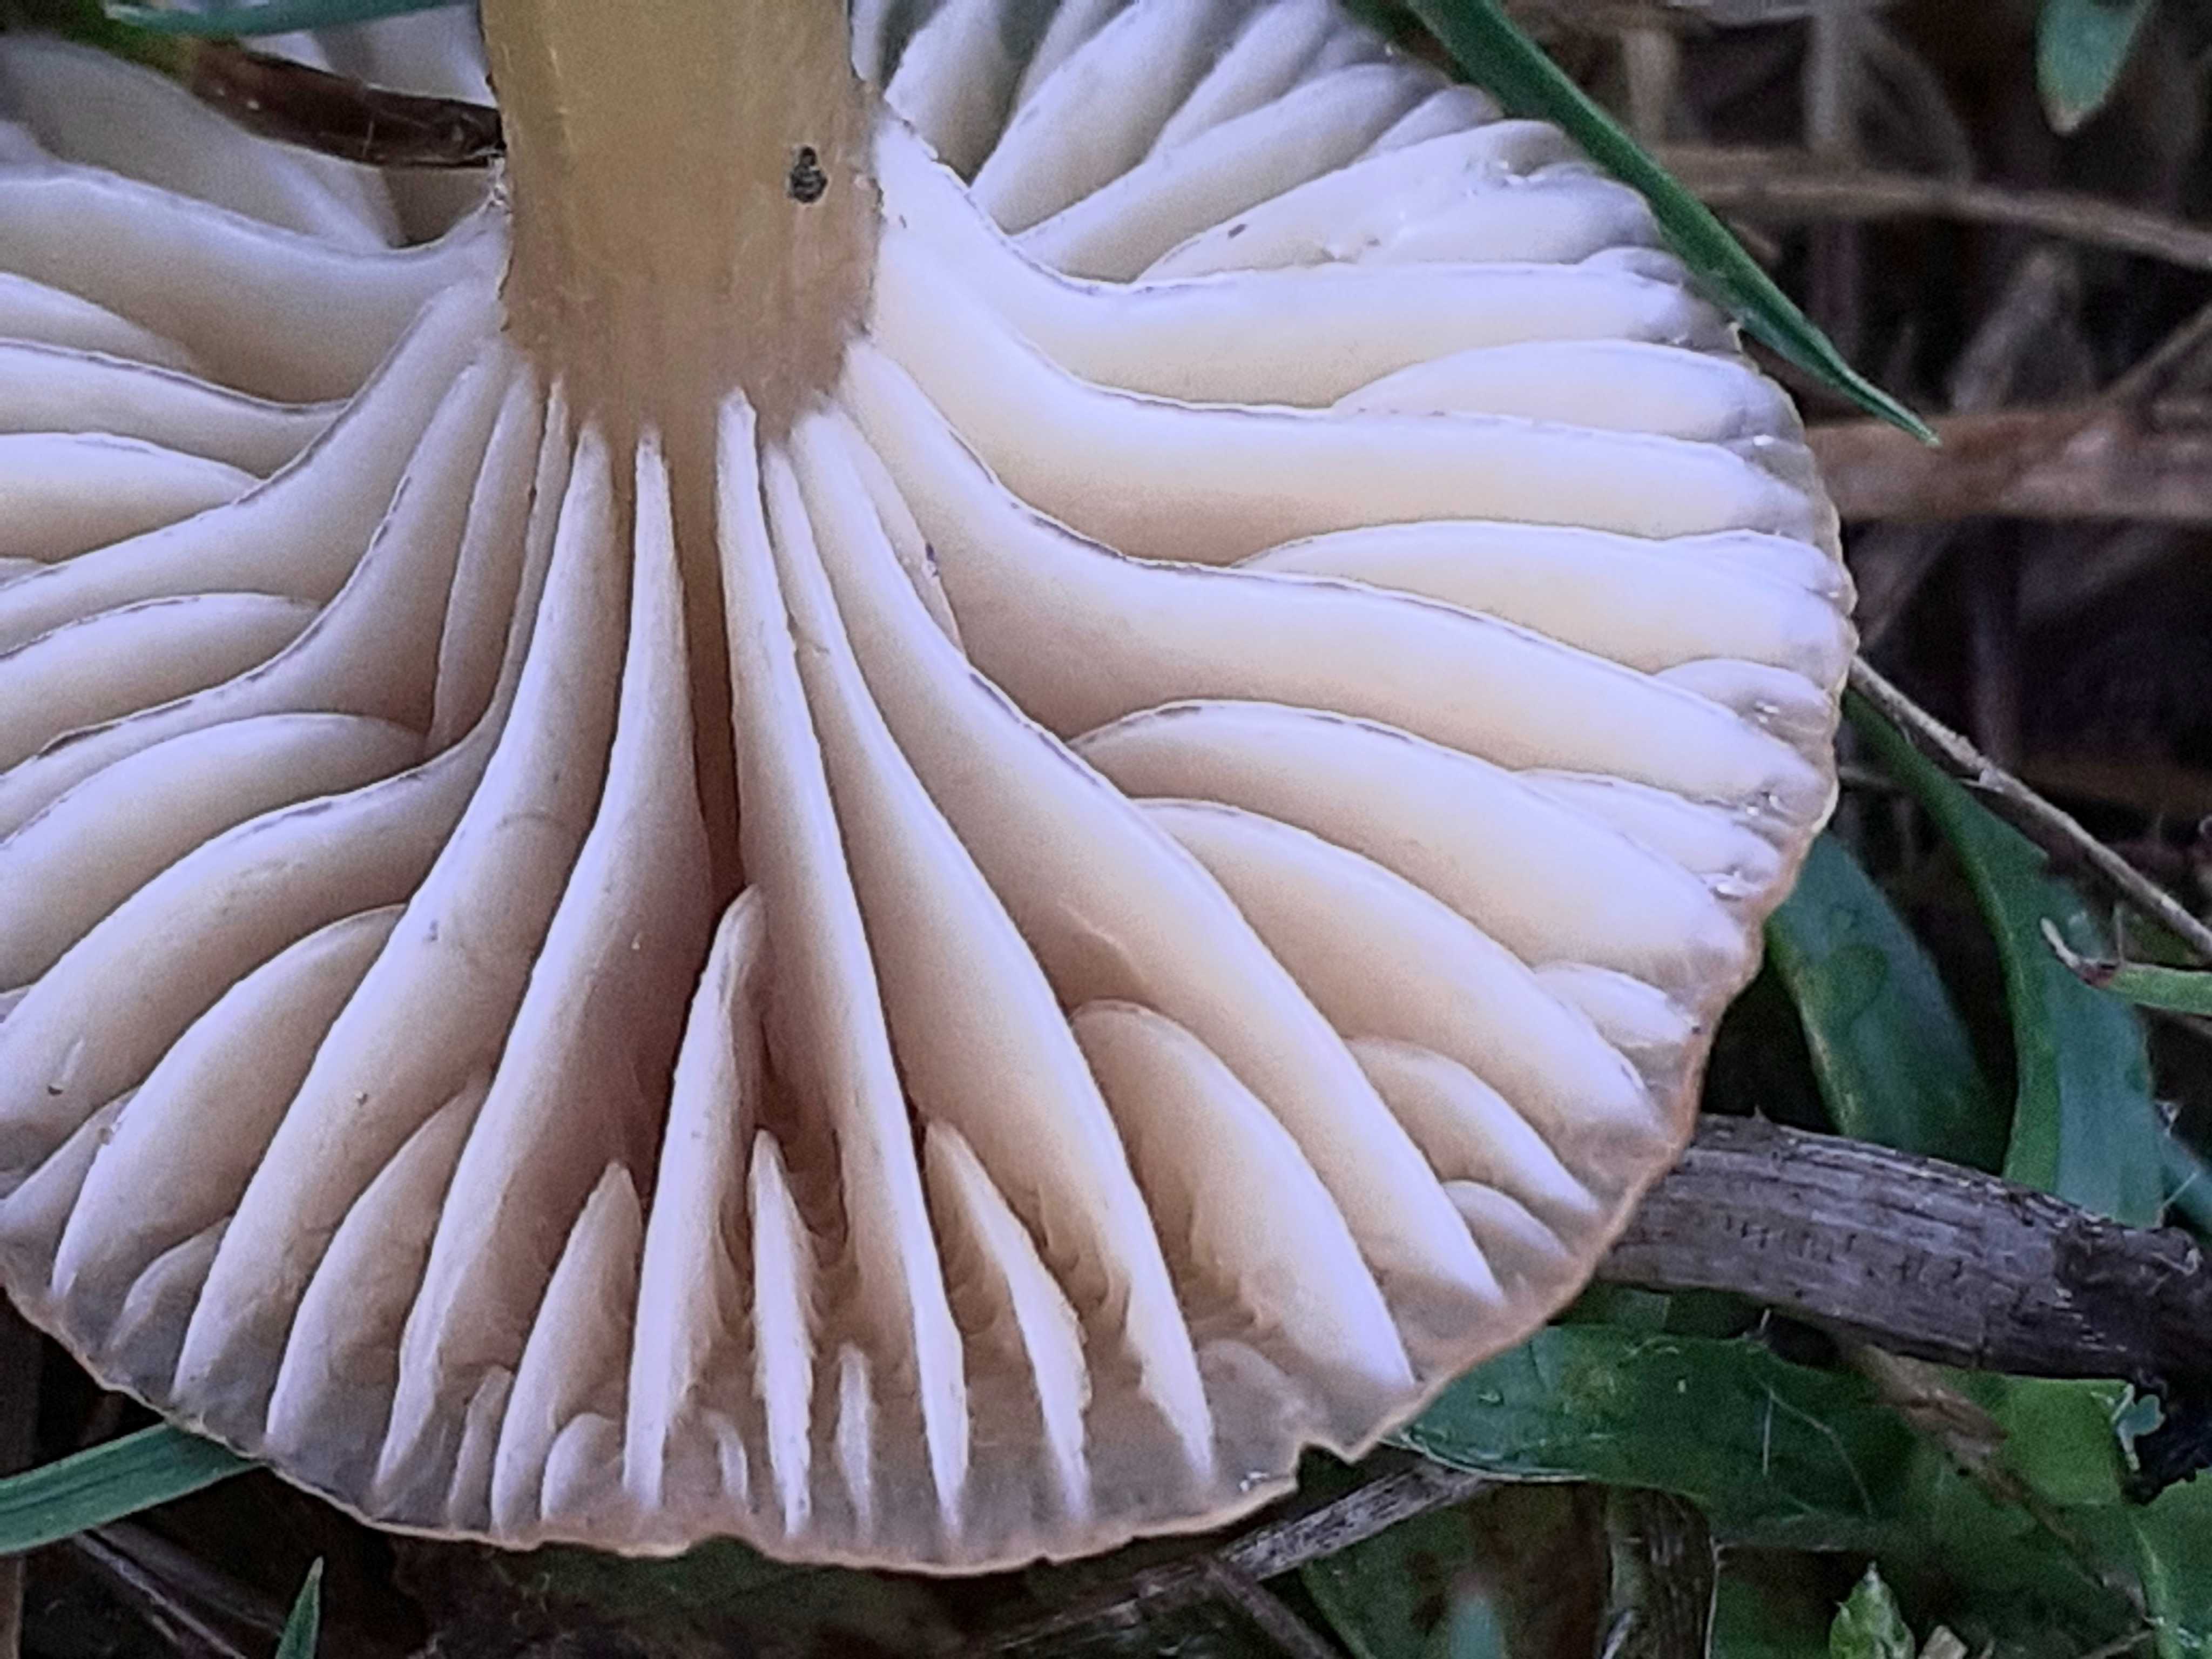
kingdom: Fungi
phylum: Basidiomycota
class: Agaricomycetes
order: Agaricales
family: Hygrophoraceae
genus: Gliophorus
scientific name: Gliophorus laetus
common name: brusk-vokshat
